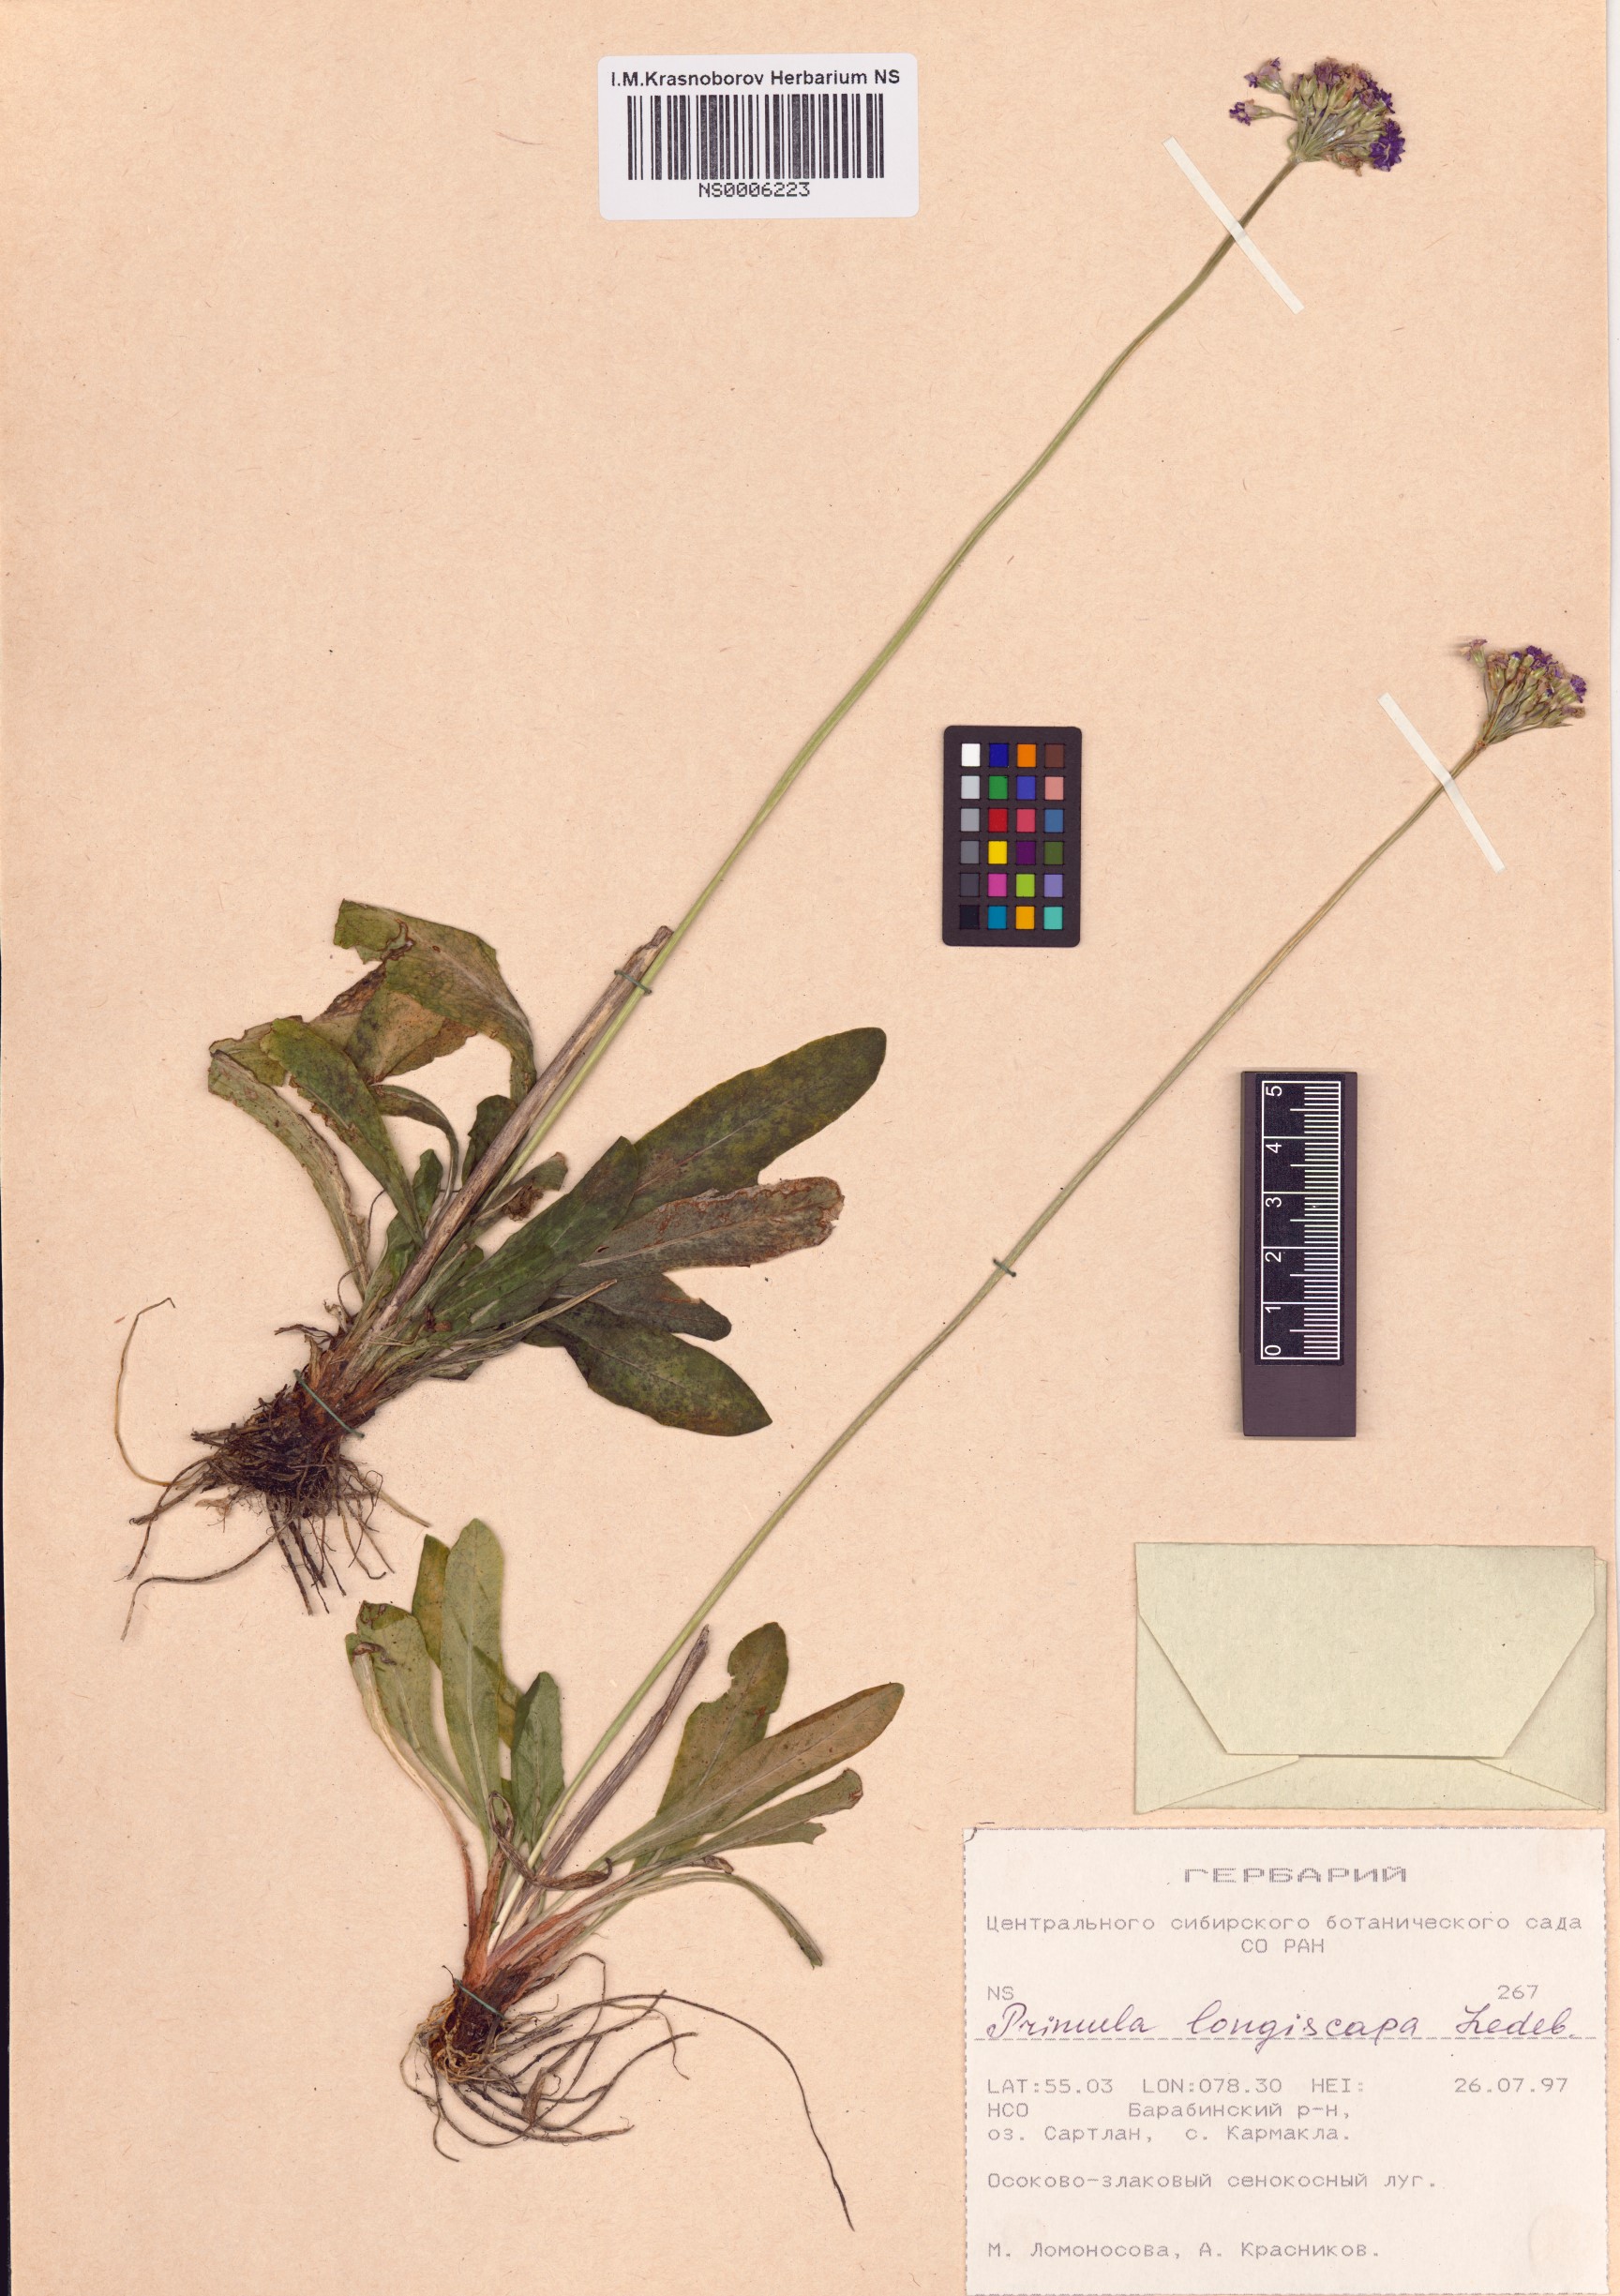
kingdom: Plantae
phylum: Tracheophyta
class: Magnoliopsida
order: Ericales
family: Primulaceae
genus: Primula
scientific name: Primula longiscapa
